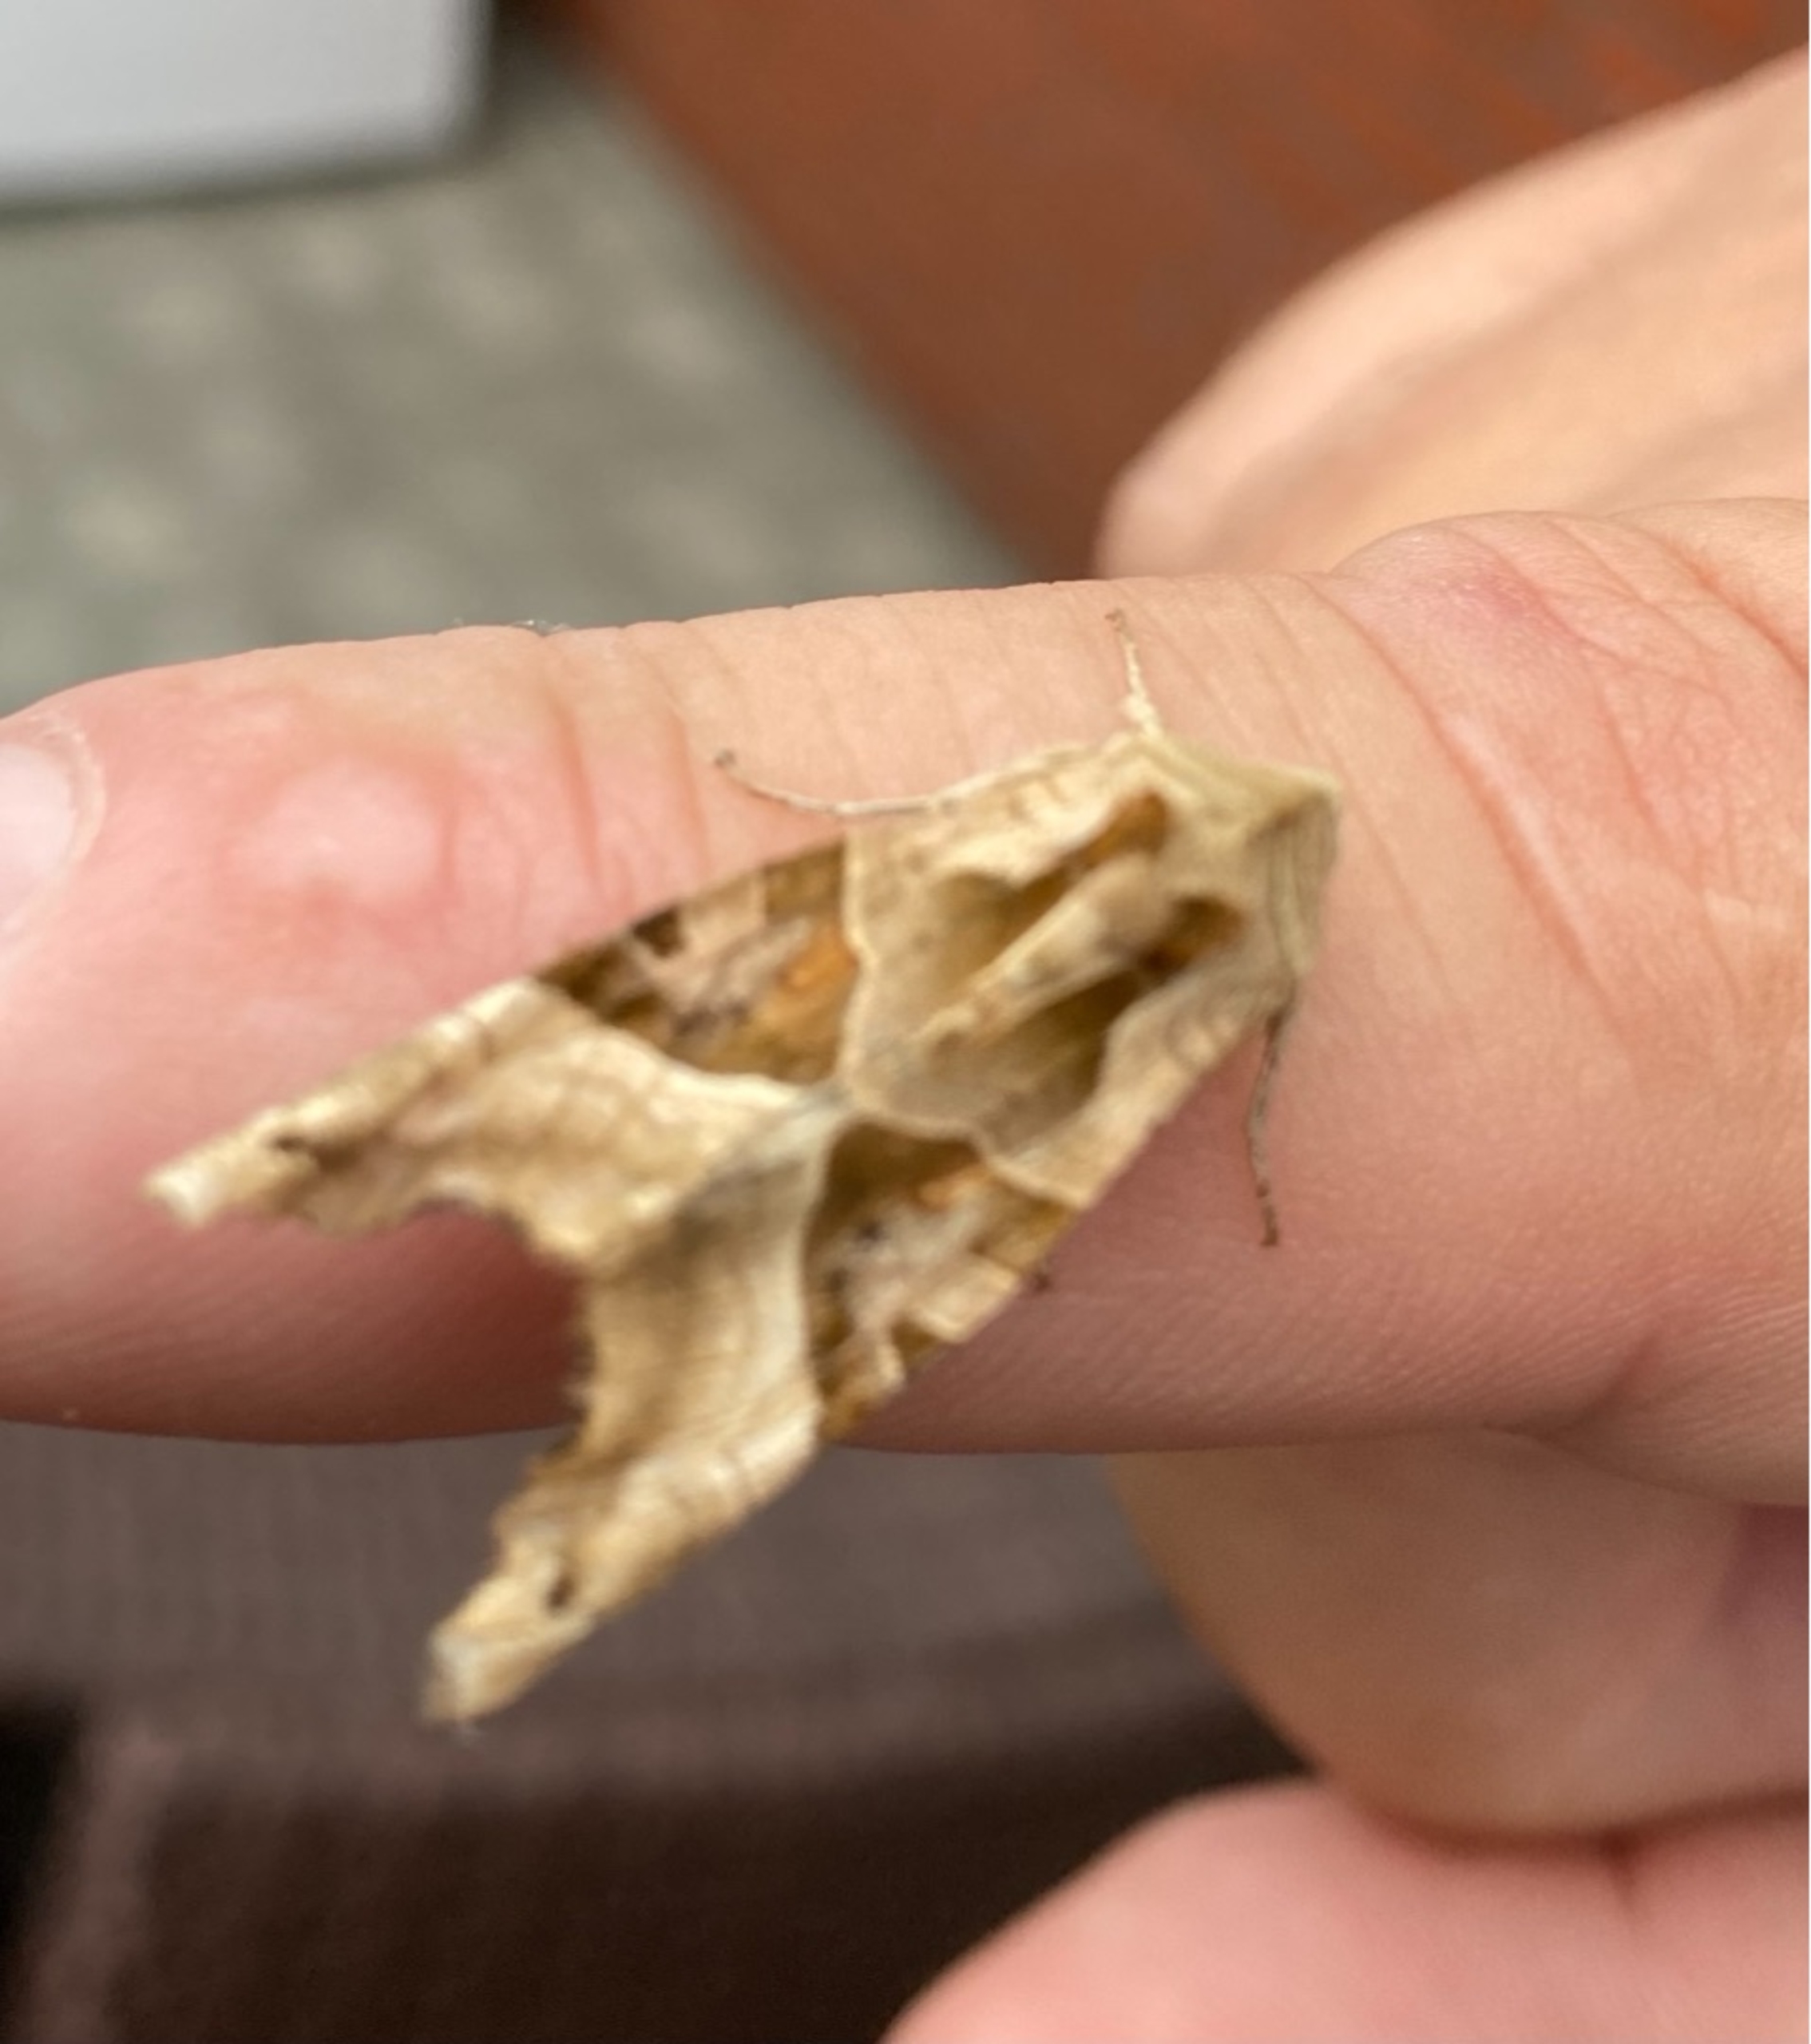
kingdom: Animalia
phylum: Arthropoda
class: Insecta
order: Lepidoptera
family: Noctuidae
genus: Phlogophora
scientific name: Phlogophora meticulosa
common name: Agatugle
